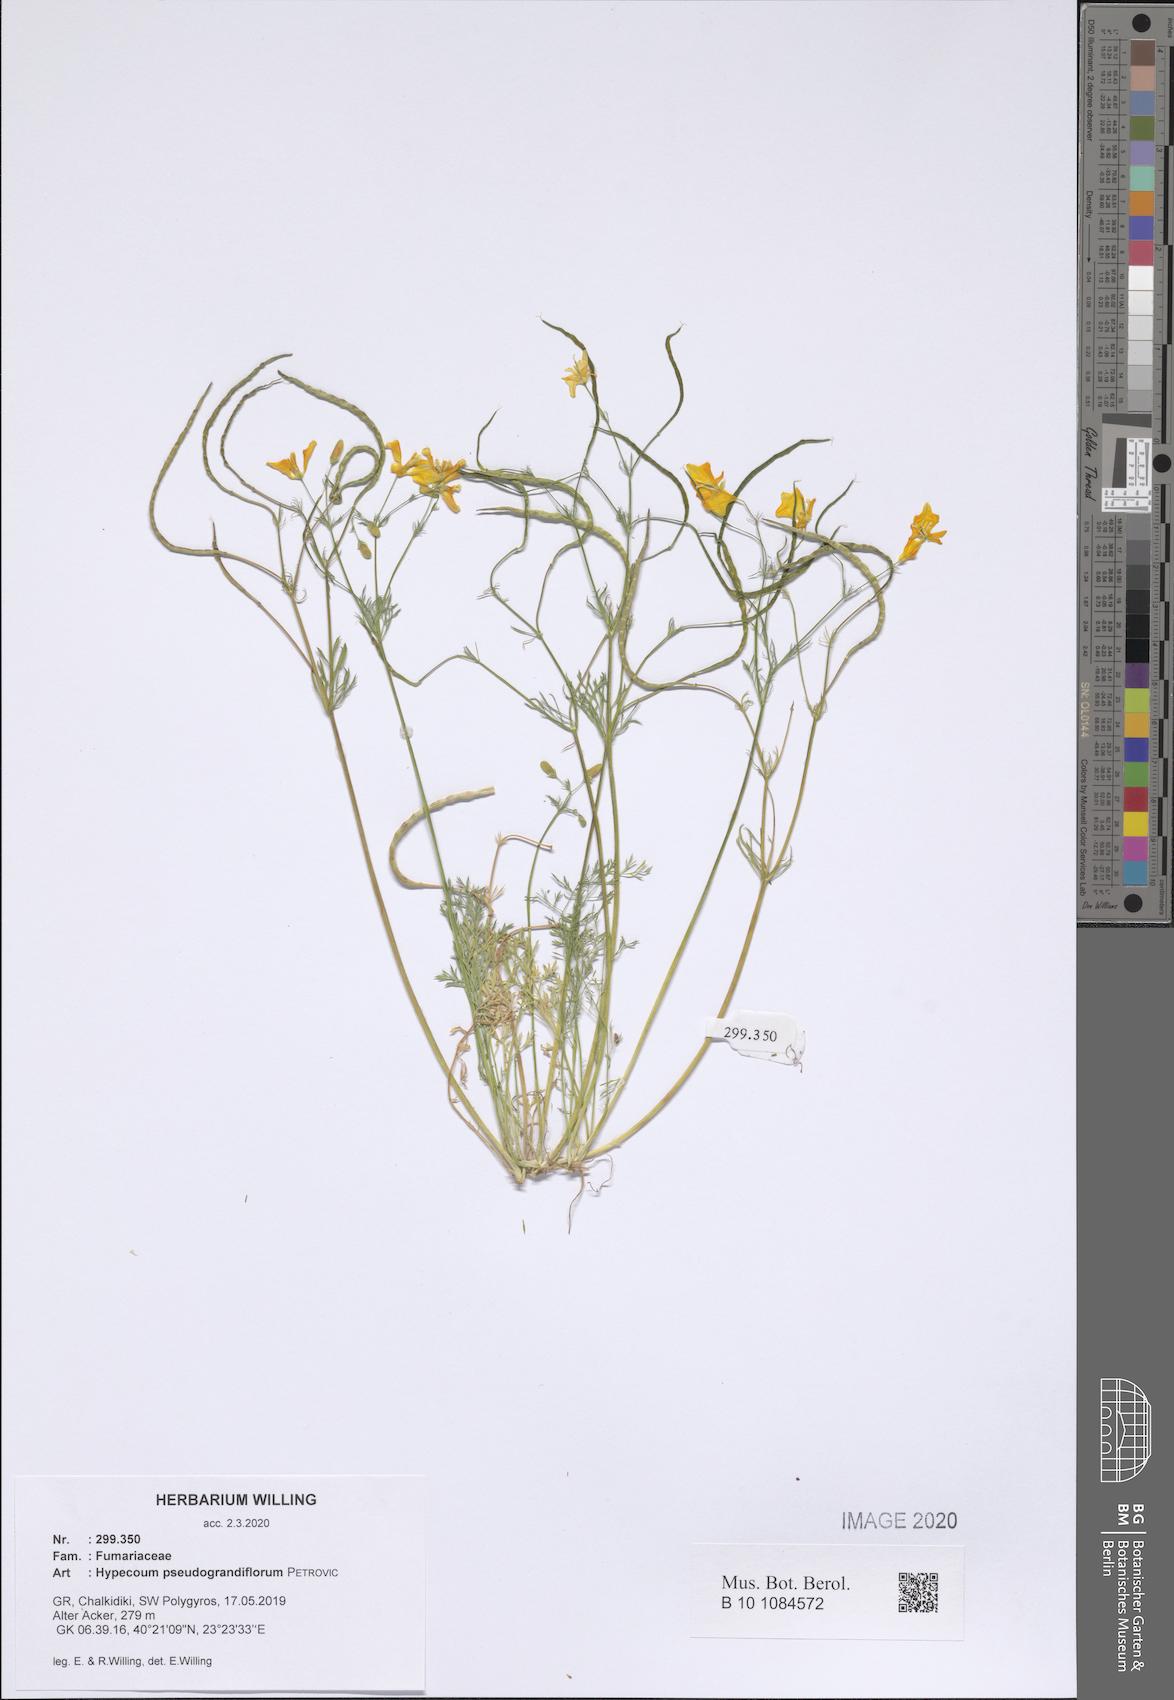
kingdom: Plantae
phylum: Tracheophyta
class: Magnoliopsida
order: Ranunculales
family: Papaveraceae
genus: Hypecoum
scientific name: Hypecoum pseudograndiflorum
